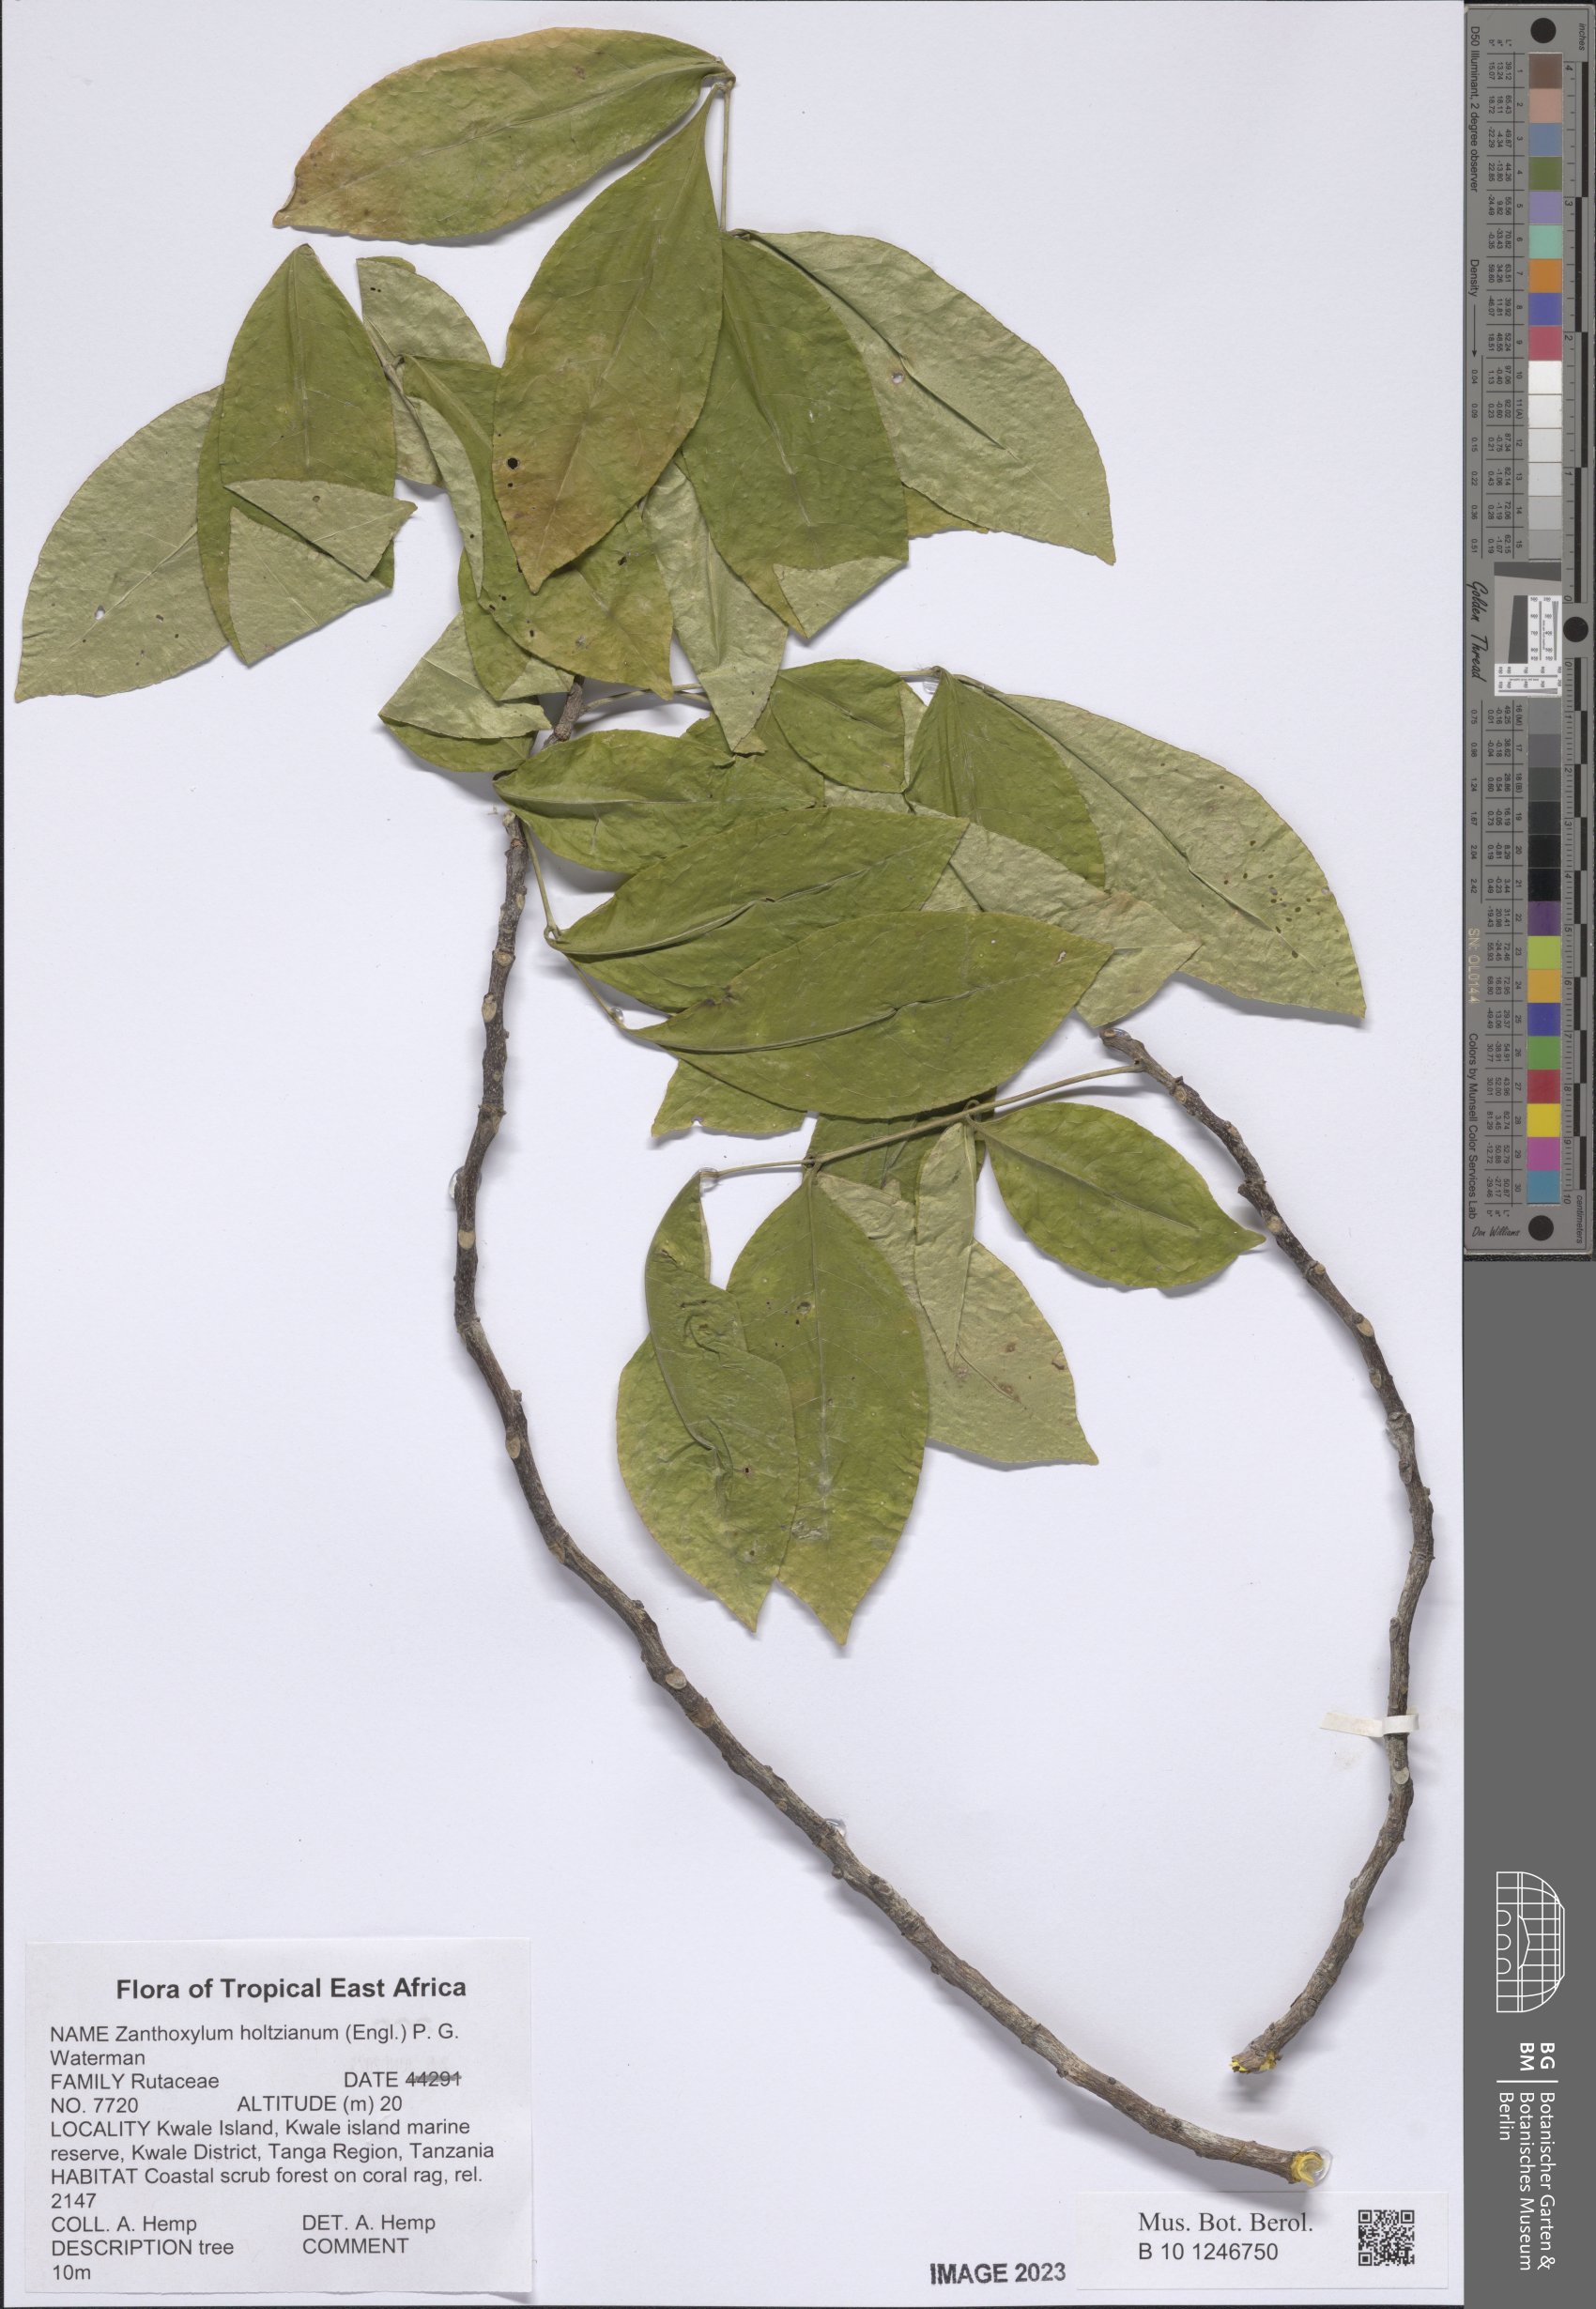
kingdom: Plantae
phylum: Tracheophyta
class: Magnoliopsida
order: Sapindales
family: Rutaceae
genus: Zanthoxylum
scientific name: Zanthoxylum holtzianum
